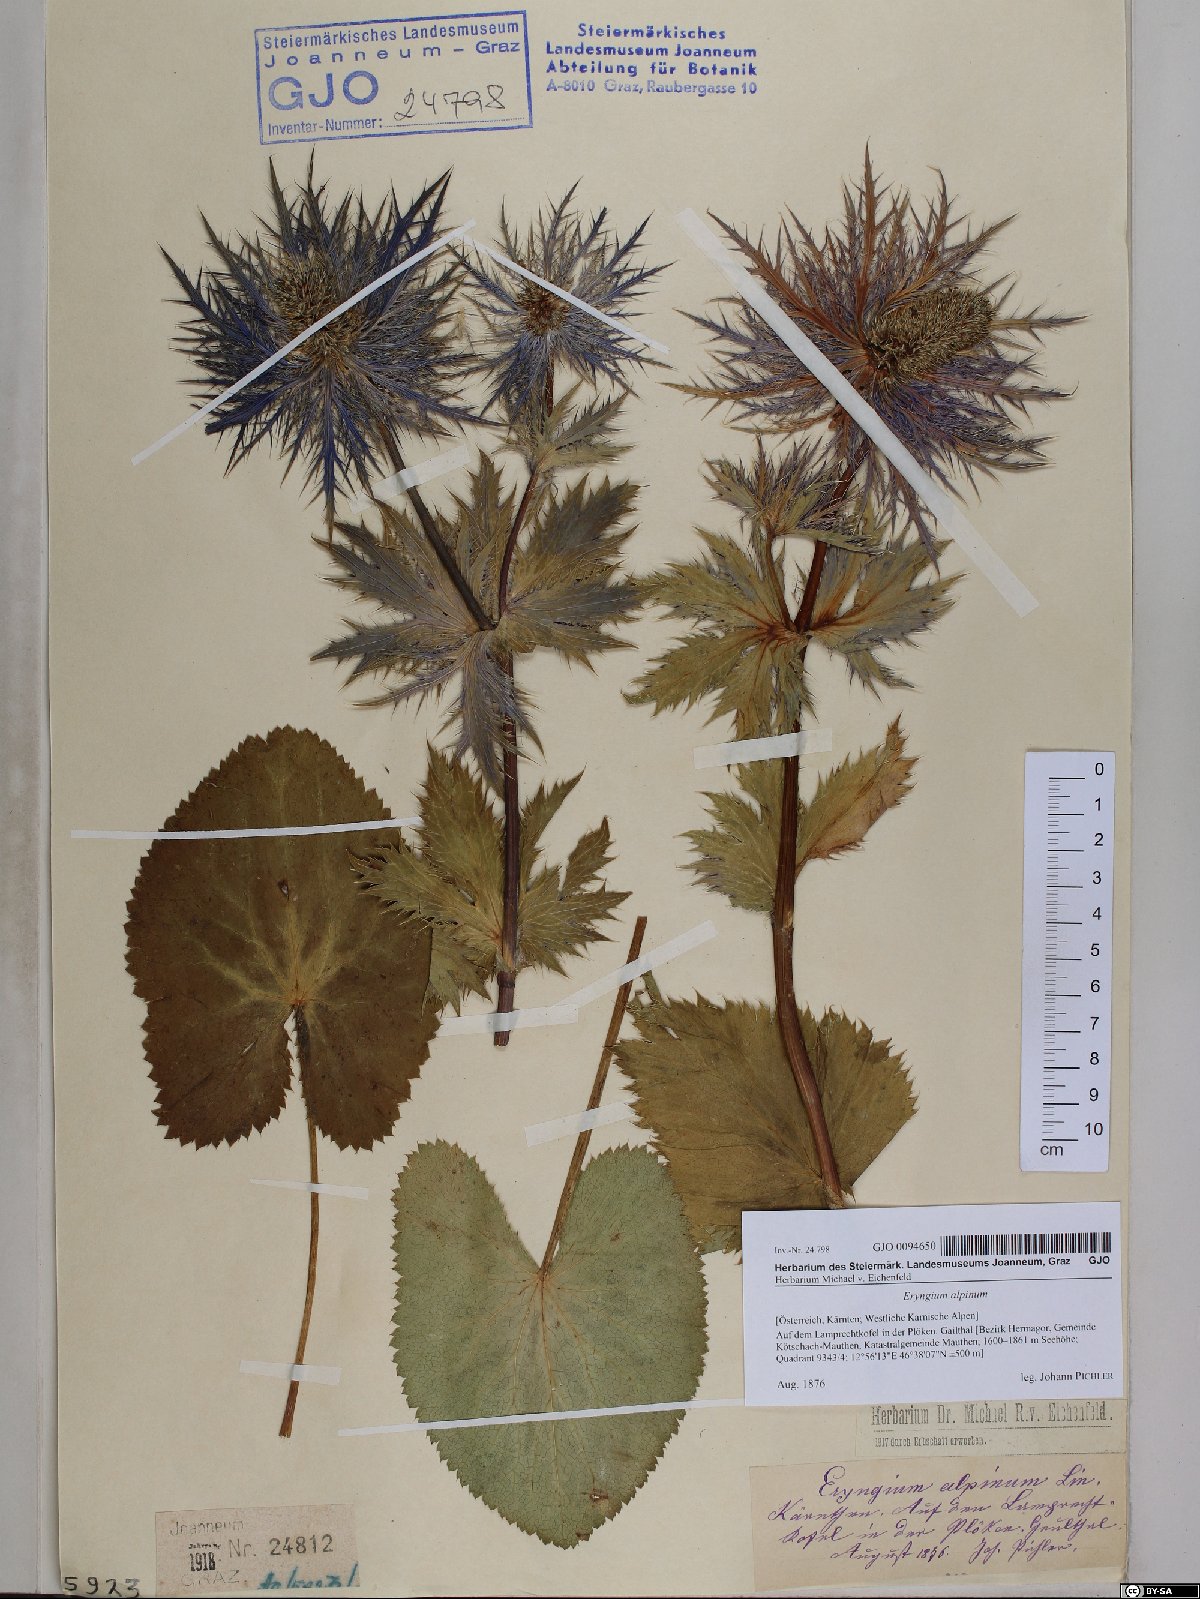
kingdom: Plantae
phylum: Tracheophyta
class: Magnoliopsida
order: Apiales
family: Apiaceae
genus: Eryngium
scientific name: Eryngium alpinum
